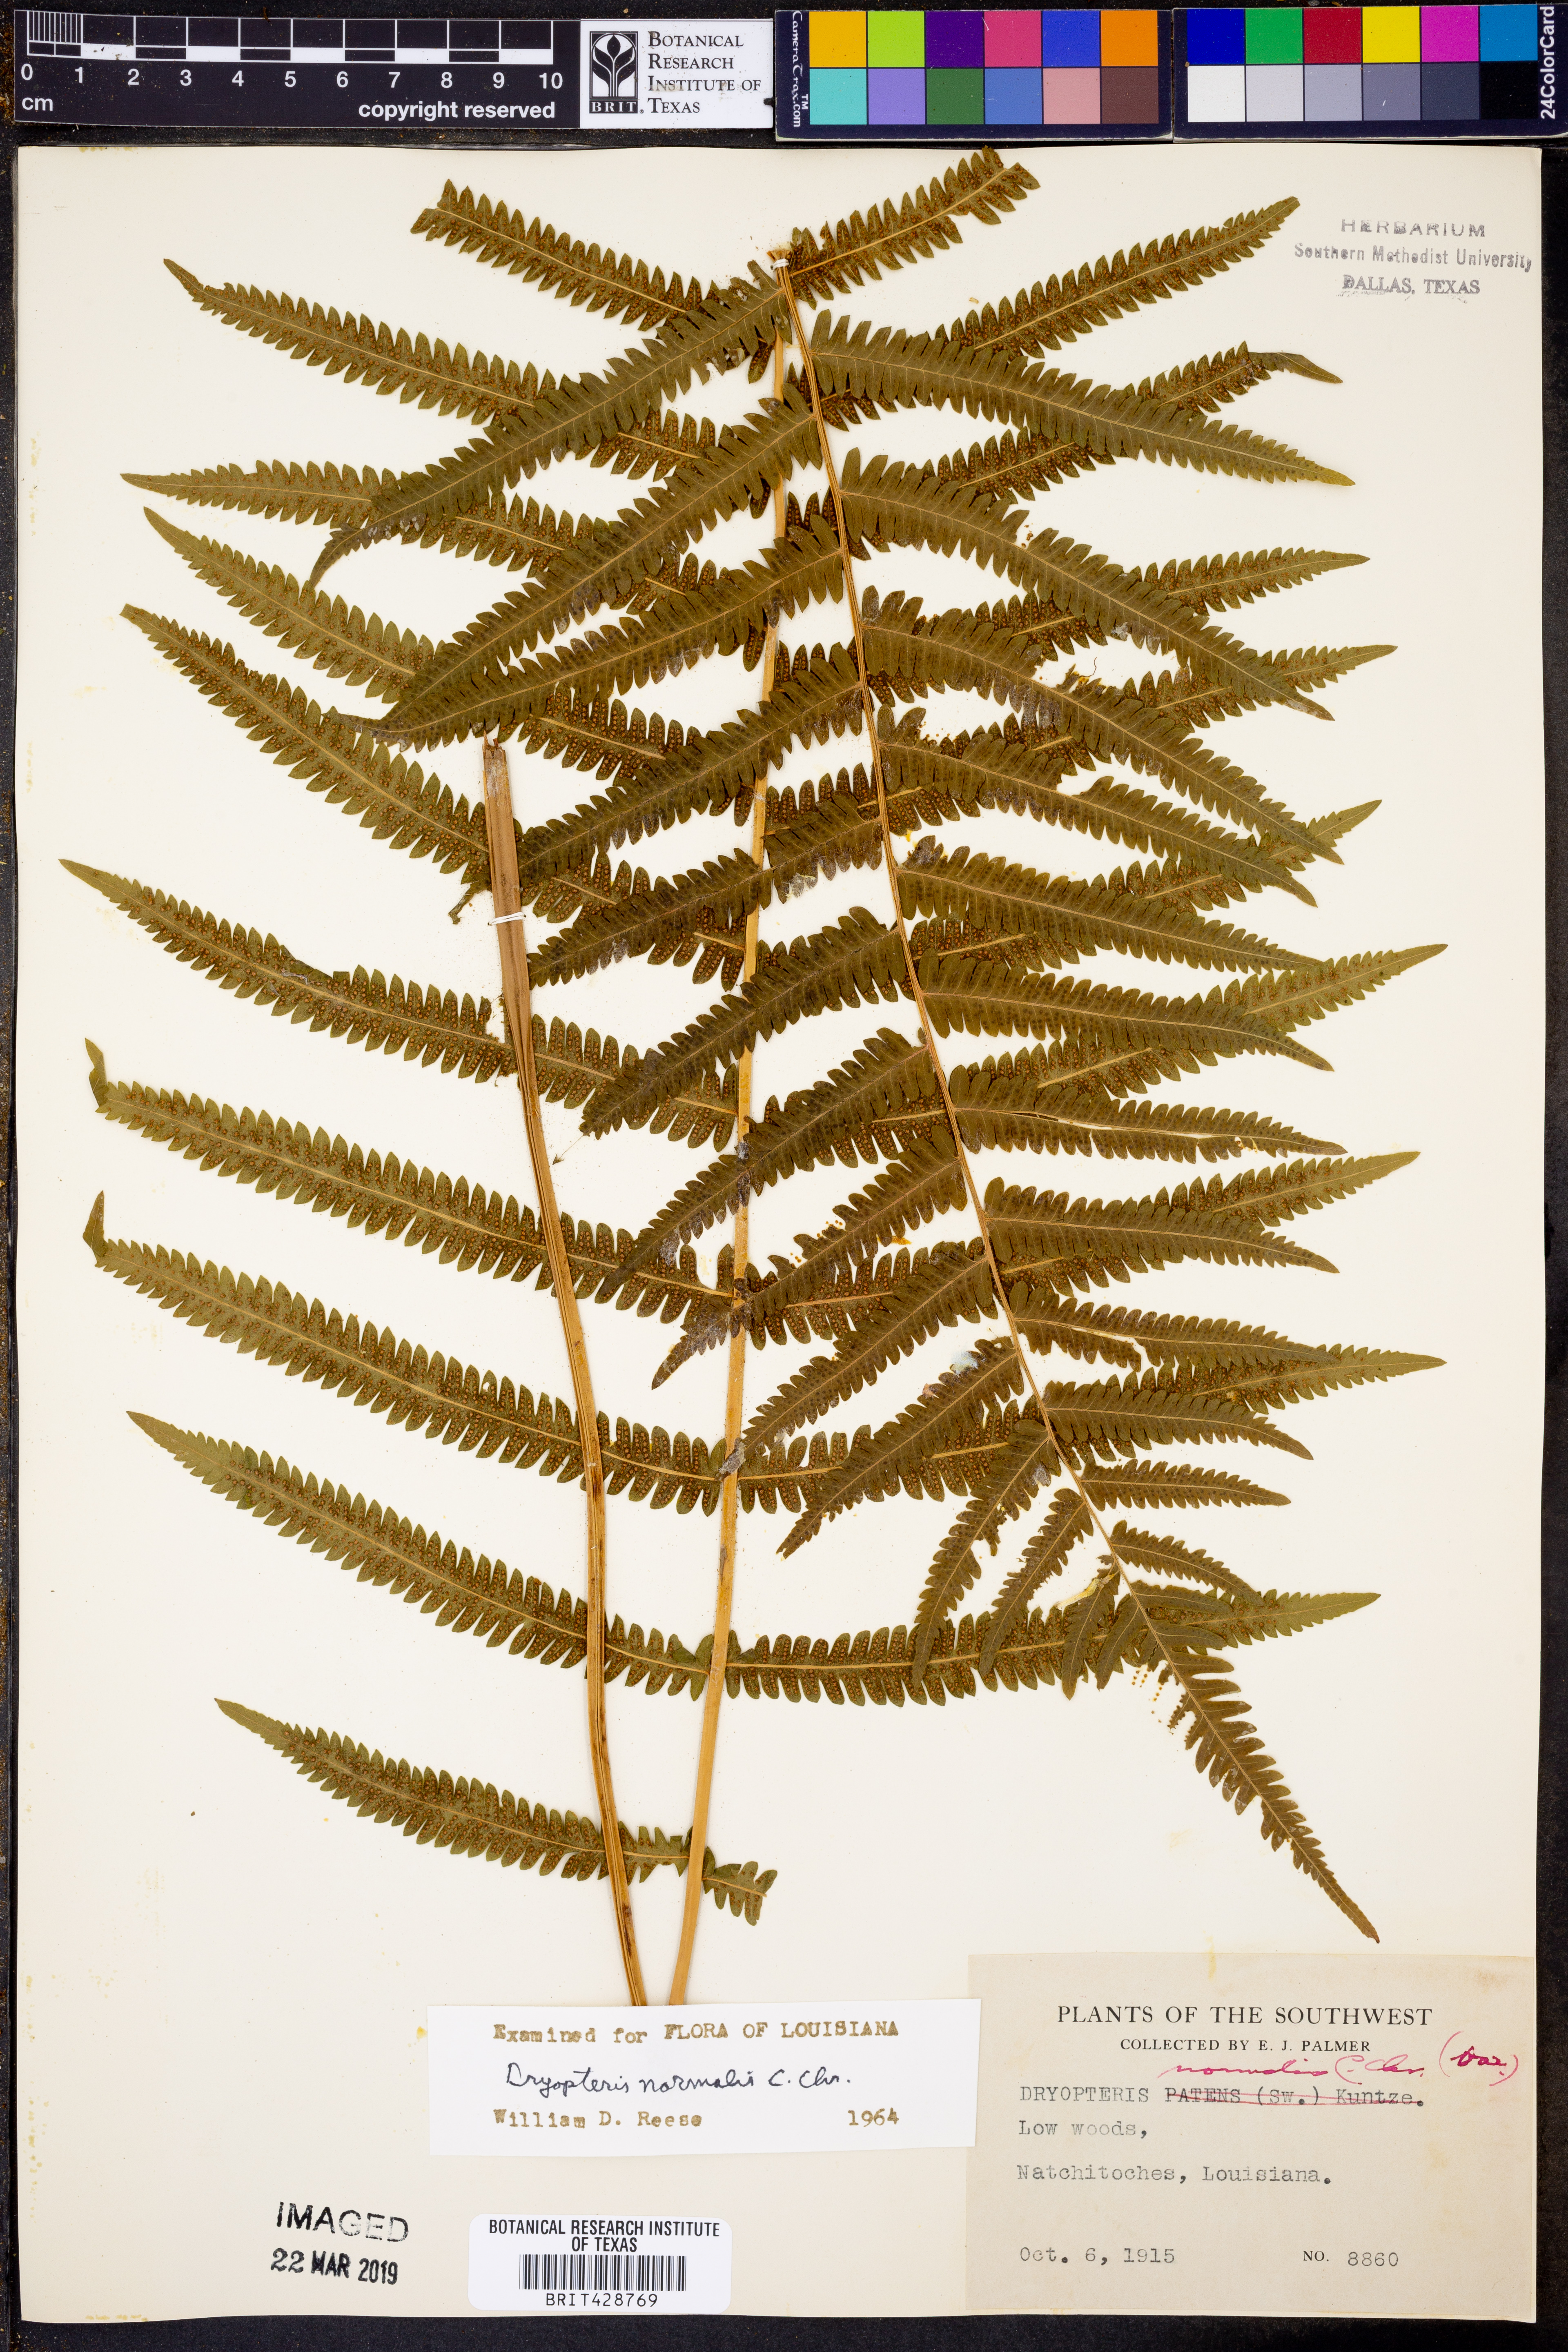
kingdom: Plantae
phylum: Tracheophyta
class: Polypodiopsida
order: Polypodiales
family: Thelypteridaceae
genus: Pelazoneuron
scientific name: Pelazoneuron kunthii
